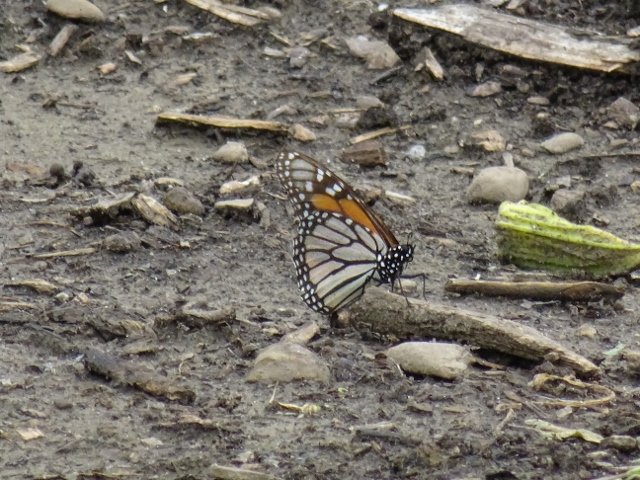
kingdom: Animalia
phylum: Arthropoda
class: Insecta
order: Lepidoptera
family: Nymphalidae
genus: Danaus
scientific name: Danaus plexippus
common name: Monarch
